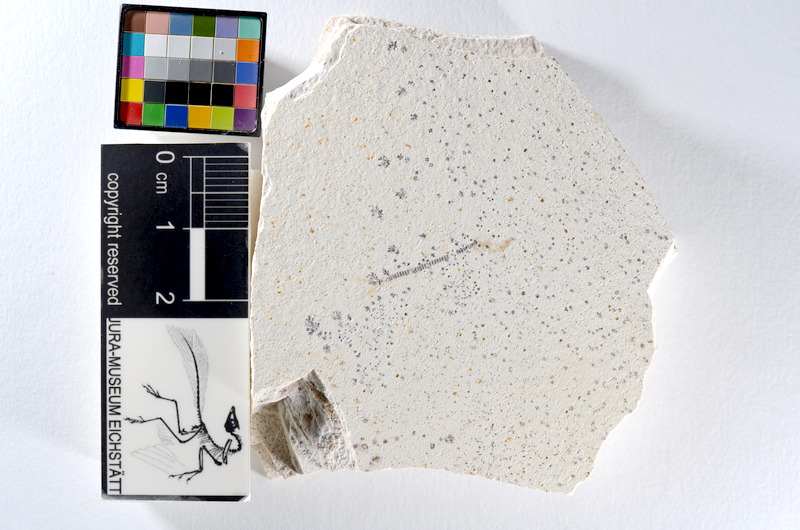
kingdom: Animalia
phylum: Chordata
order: Salmoniformes
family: Orthogonikleithridae
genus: Orthogonikleithrus
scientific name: Orthogonikleithrus hoelli
